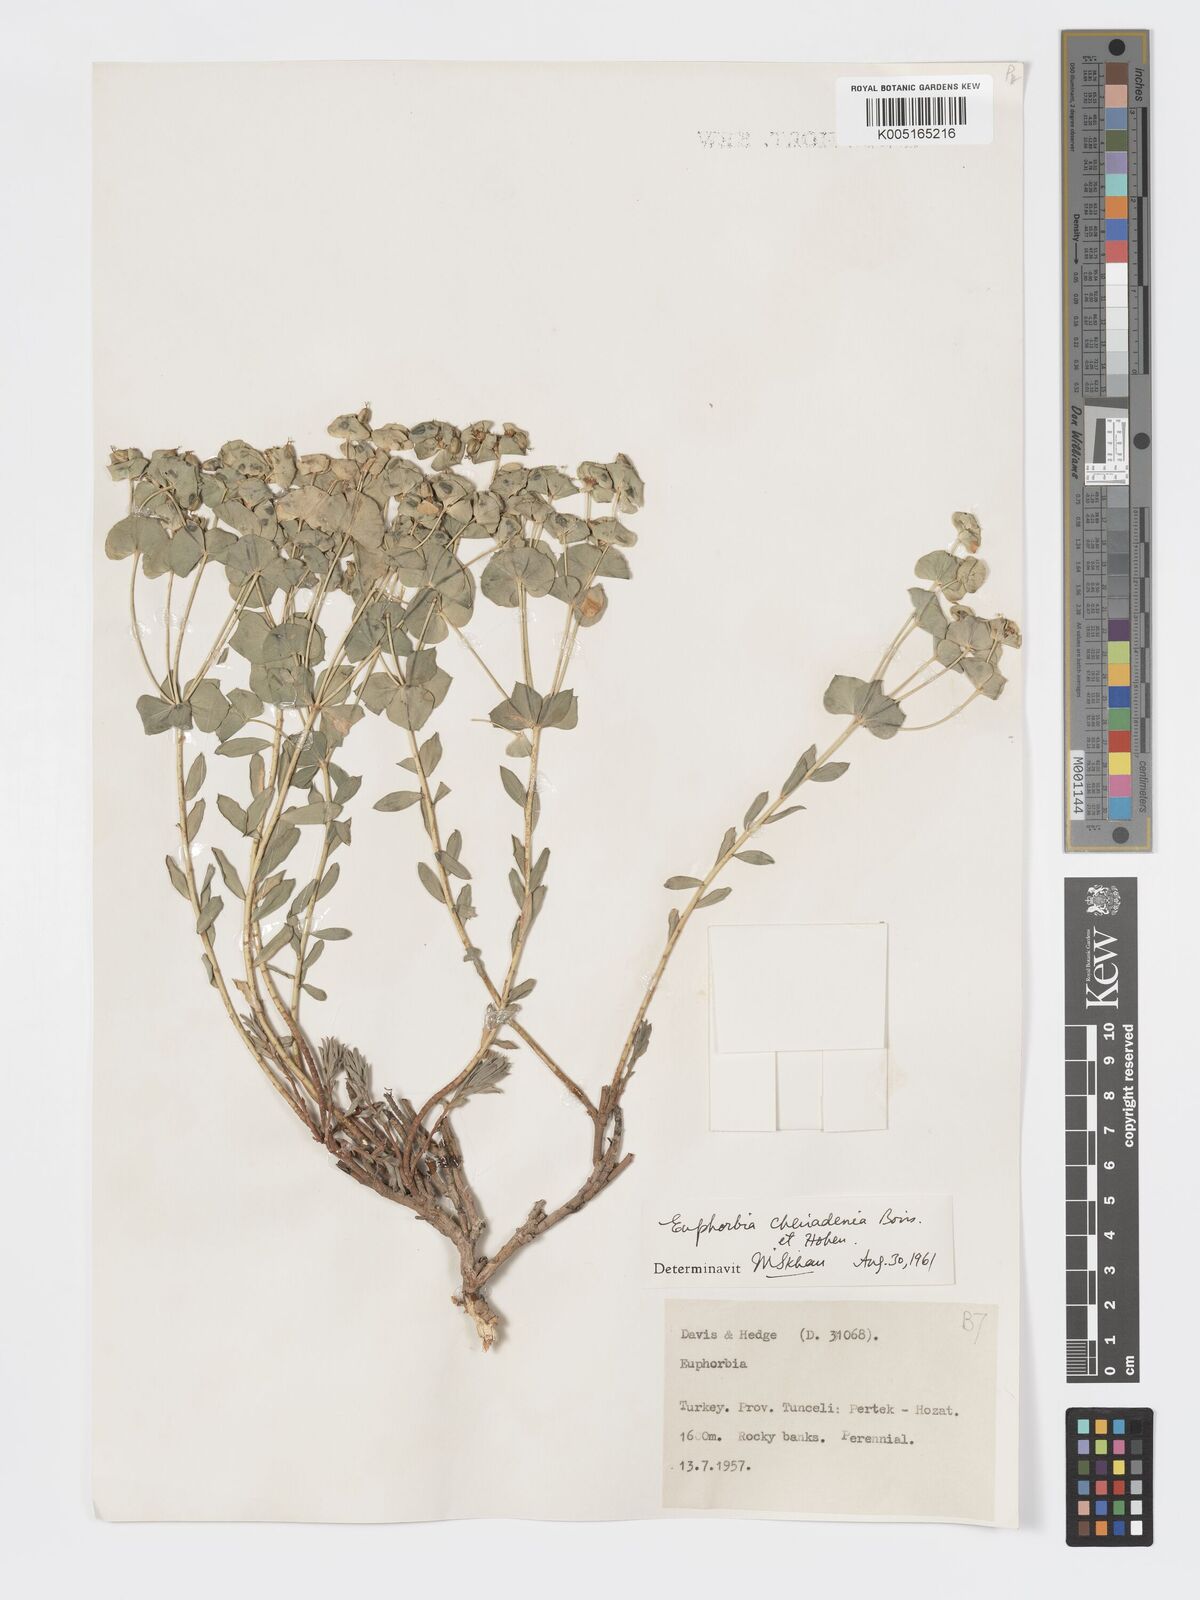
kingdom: Plantae
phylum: Tracheophyta
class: Magnoliopsida
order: Malpighiales
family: Euphorbiaceae
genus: Euphorbia
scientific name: Euphorbia cheiradenia
